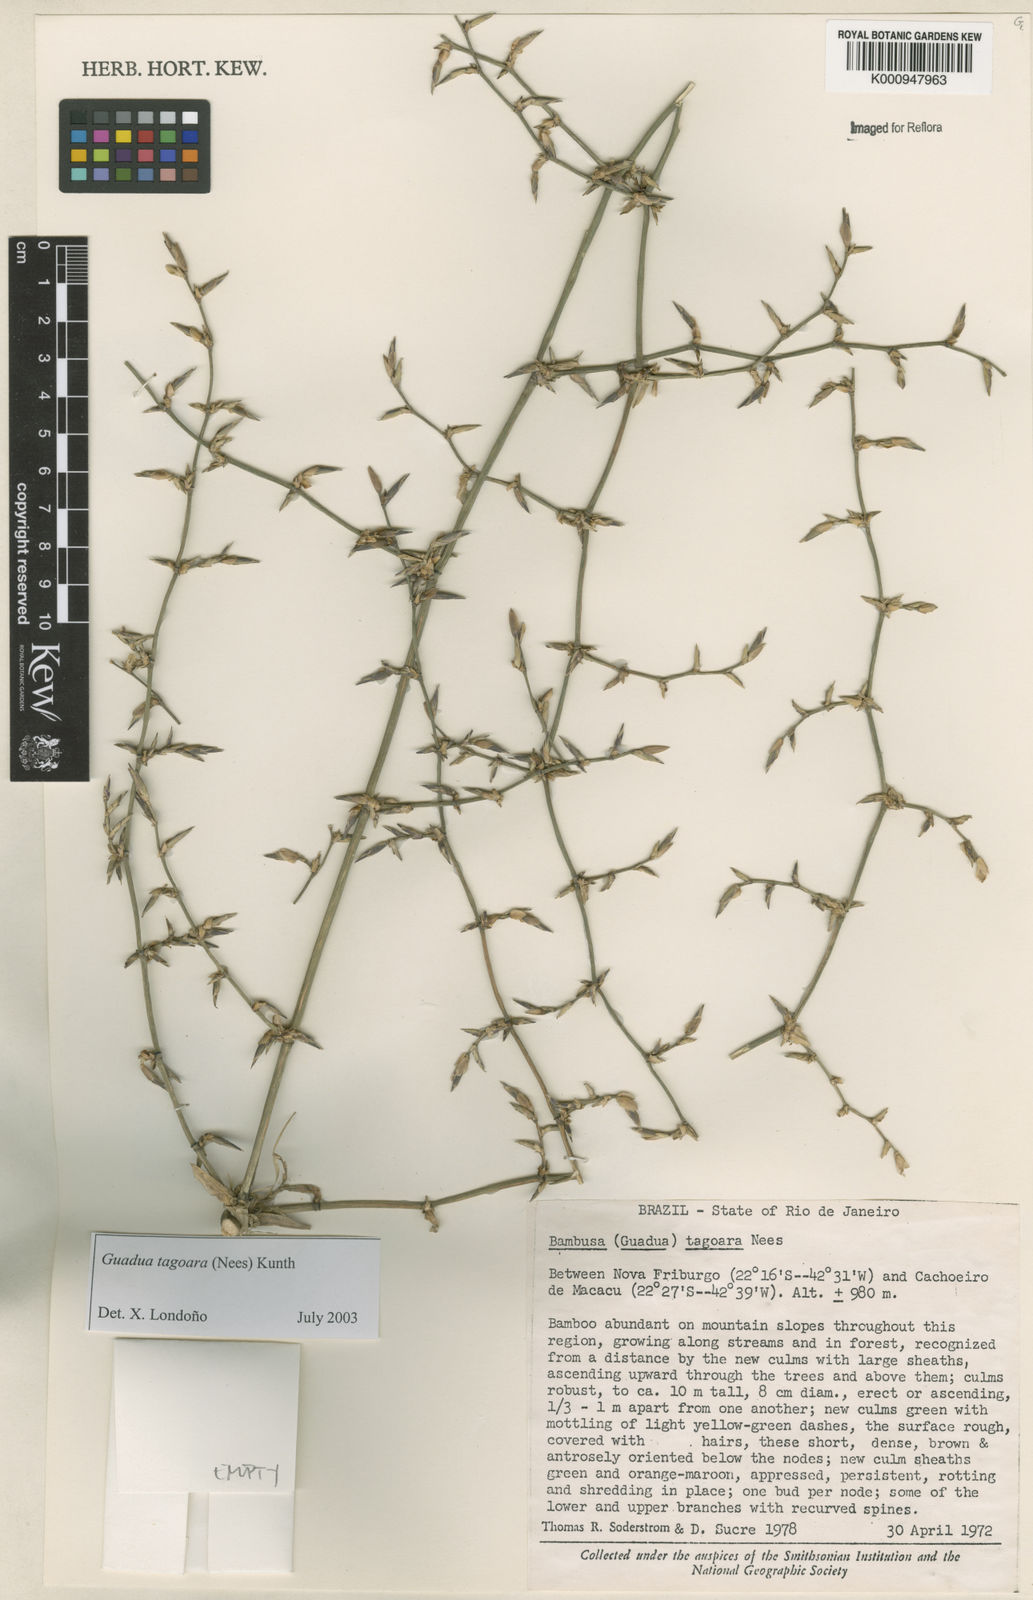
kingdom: Plantae
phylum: Tracheophyta
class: Liliopsida
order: Poales
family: Poaceae
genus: Guadua
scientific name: Guadua tagoara
